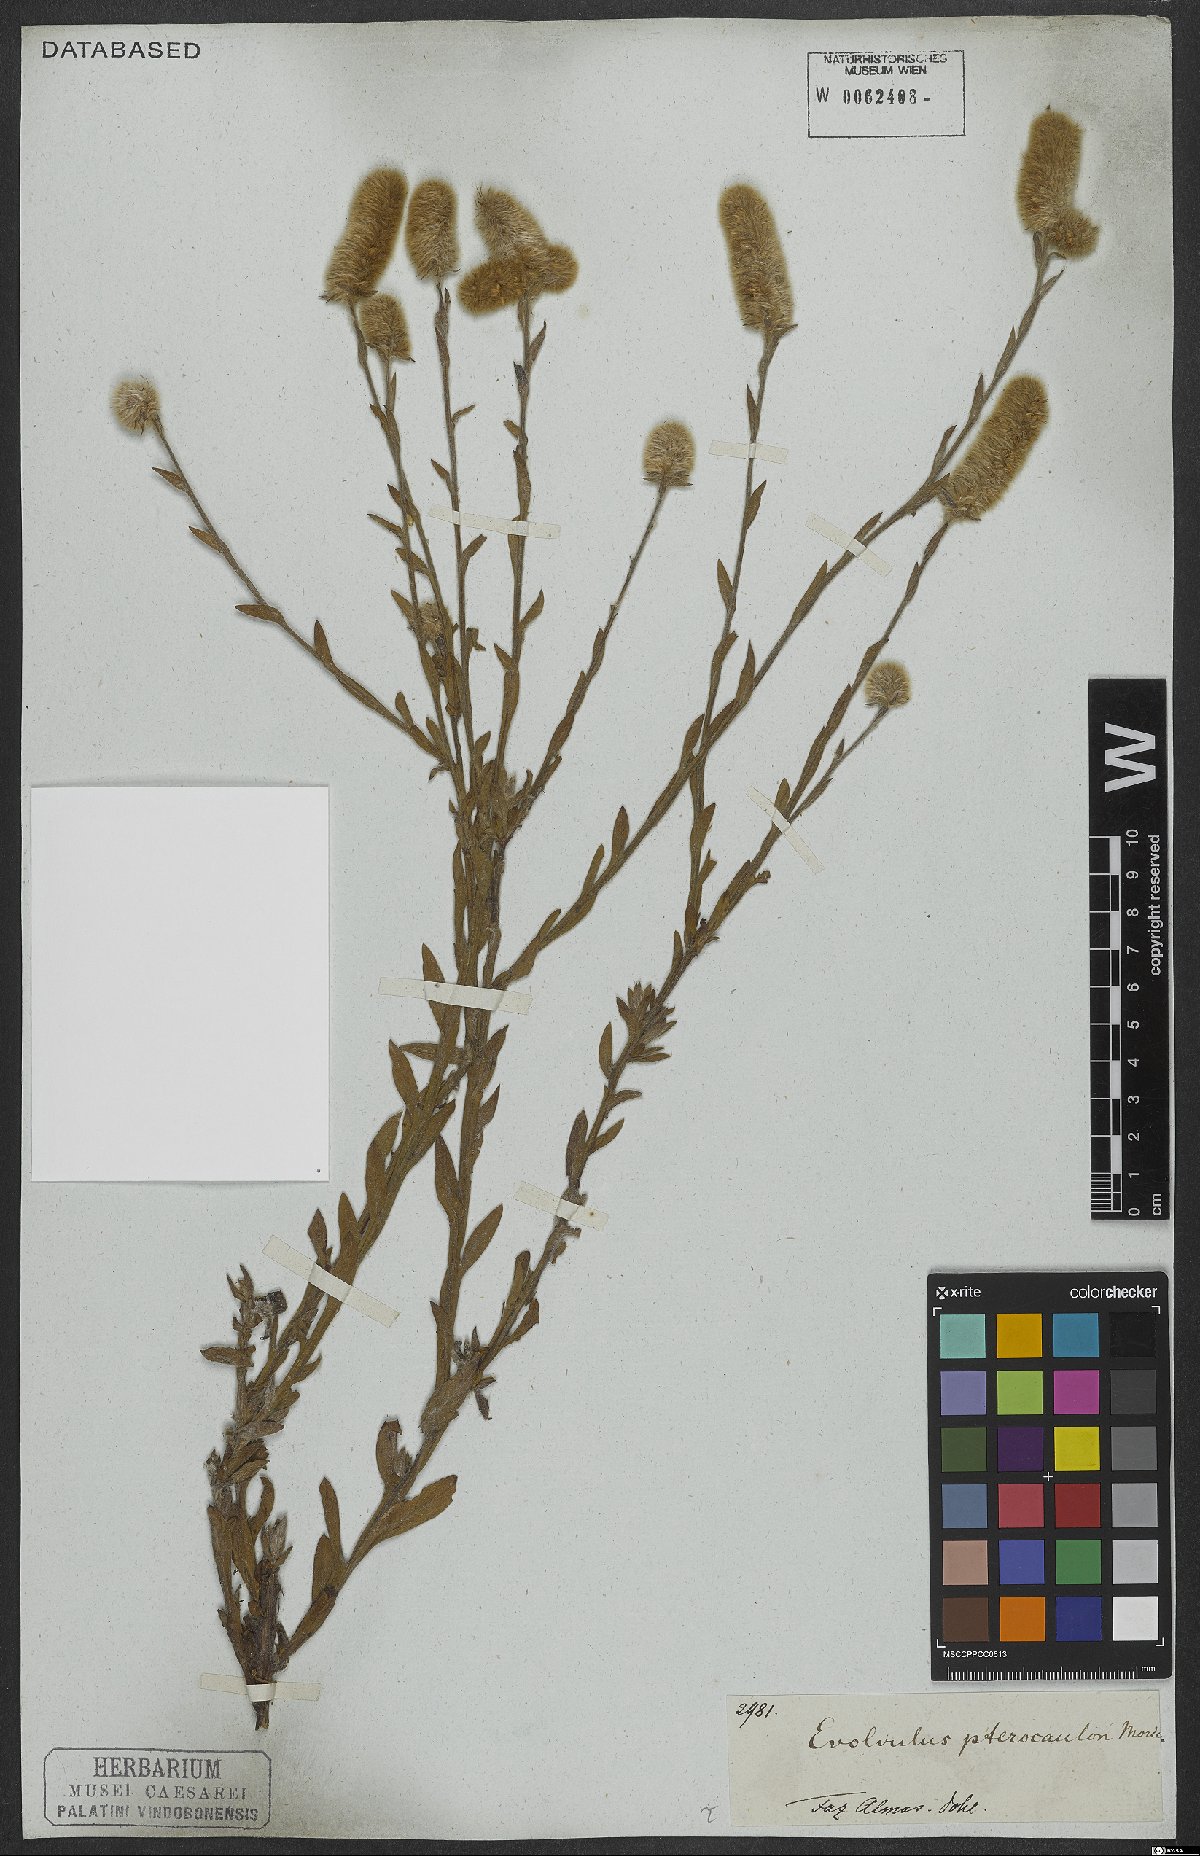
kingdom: Plantae
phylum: Tracheophyta
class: Magnoliopsida
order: Solanales
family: Convolvulaceae
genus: Evolvulus
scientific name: Evolvulus pterocaulon
